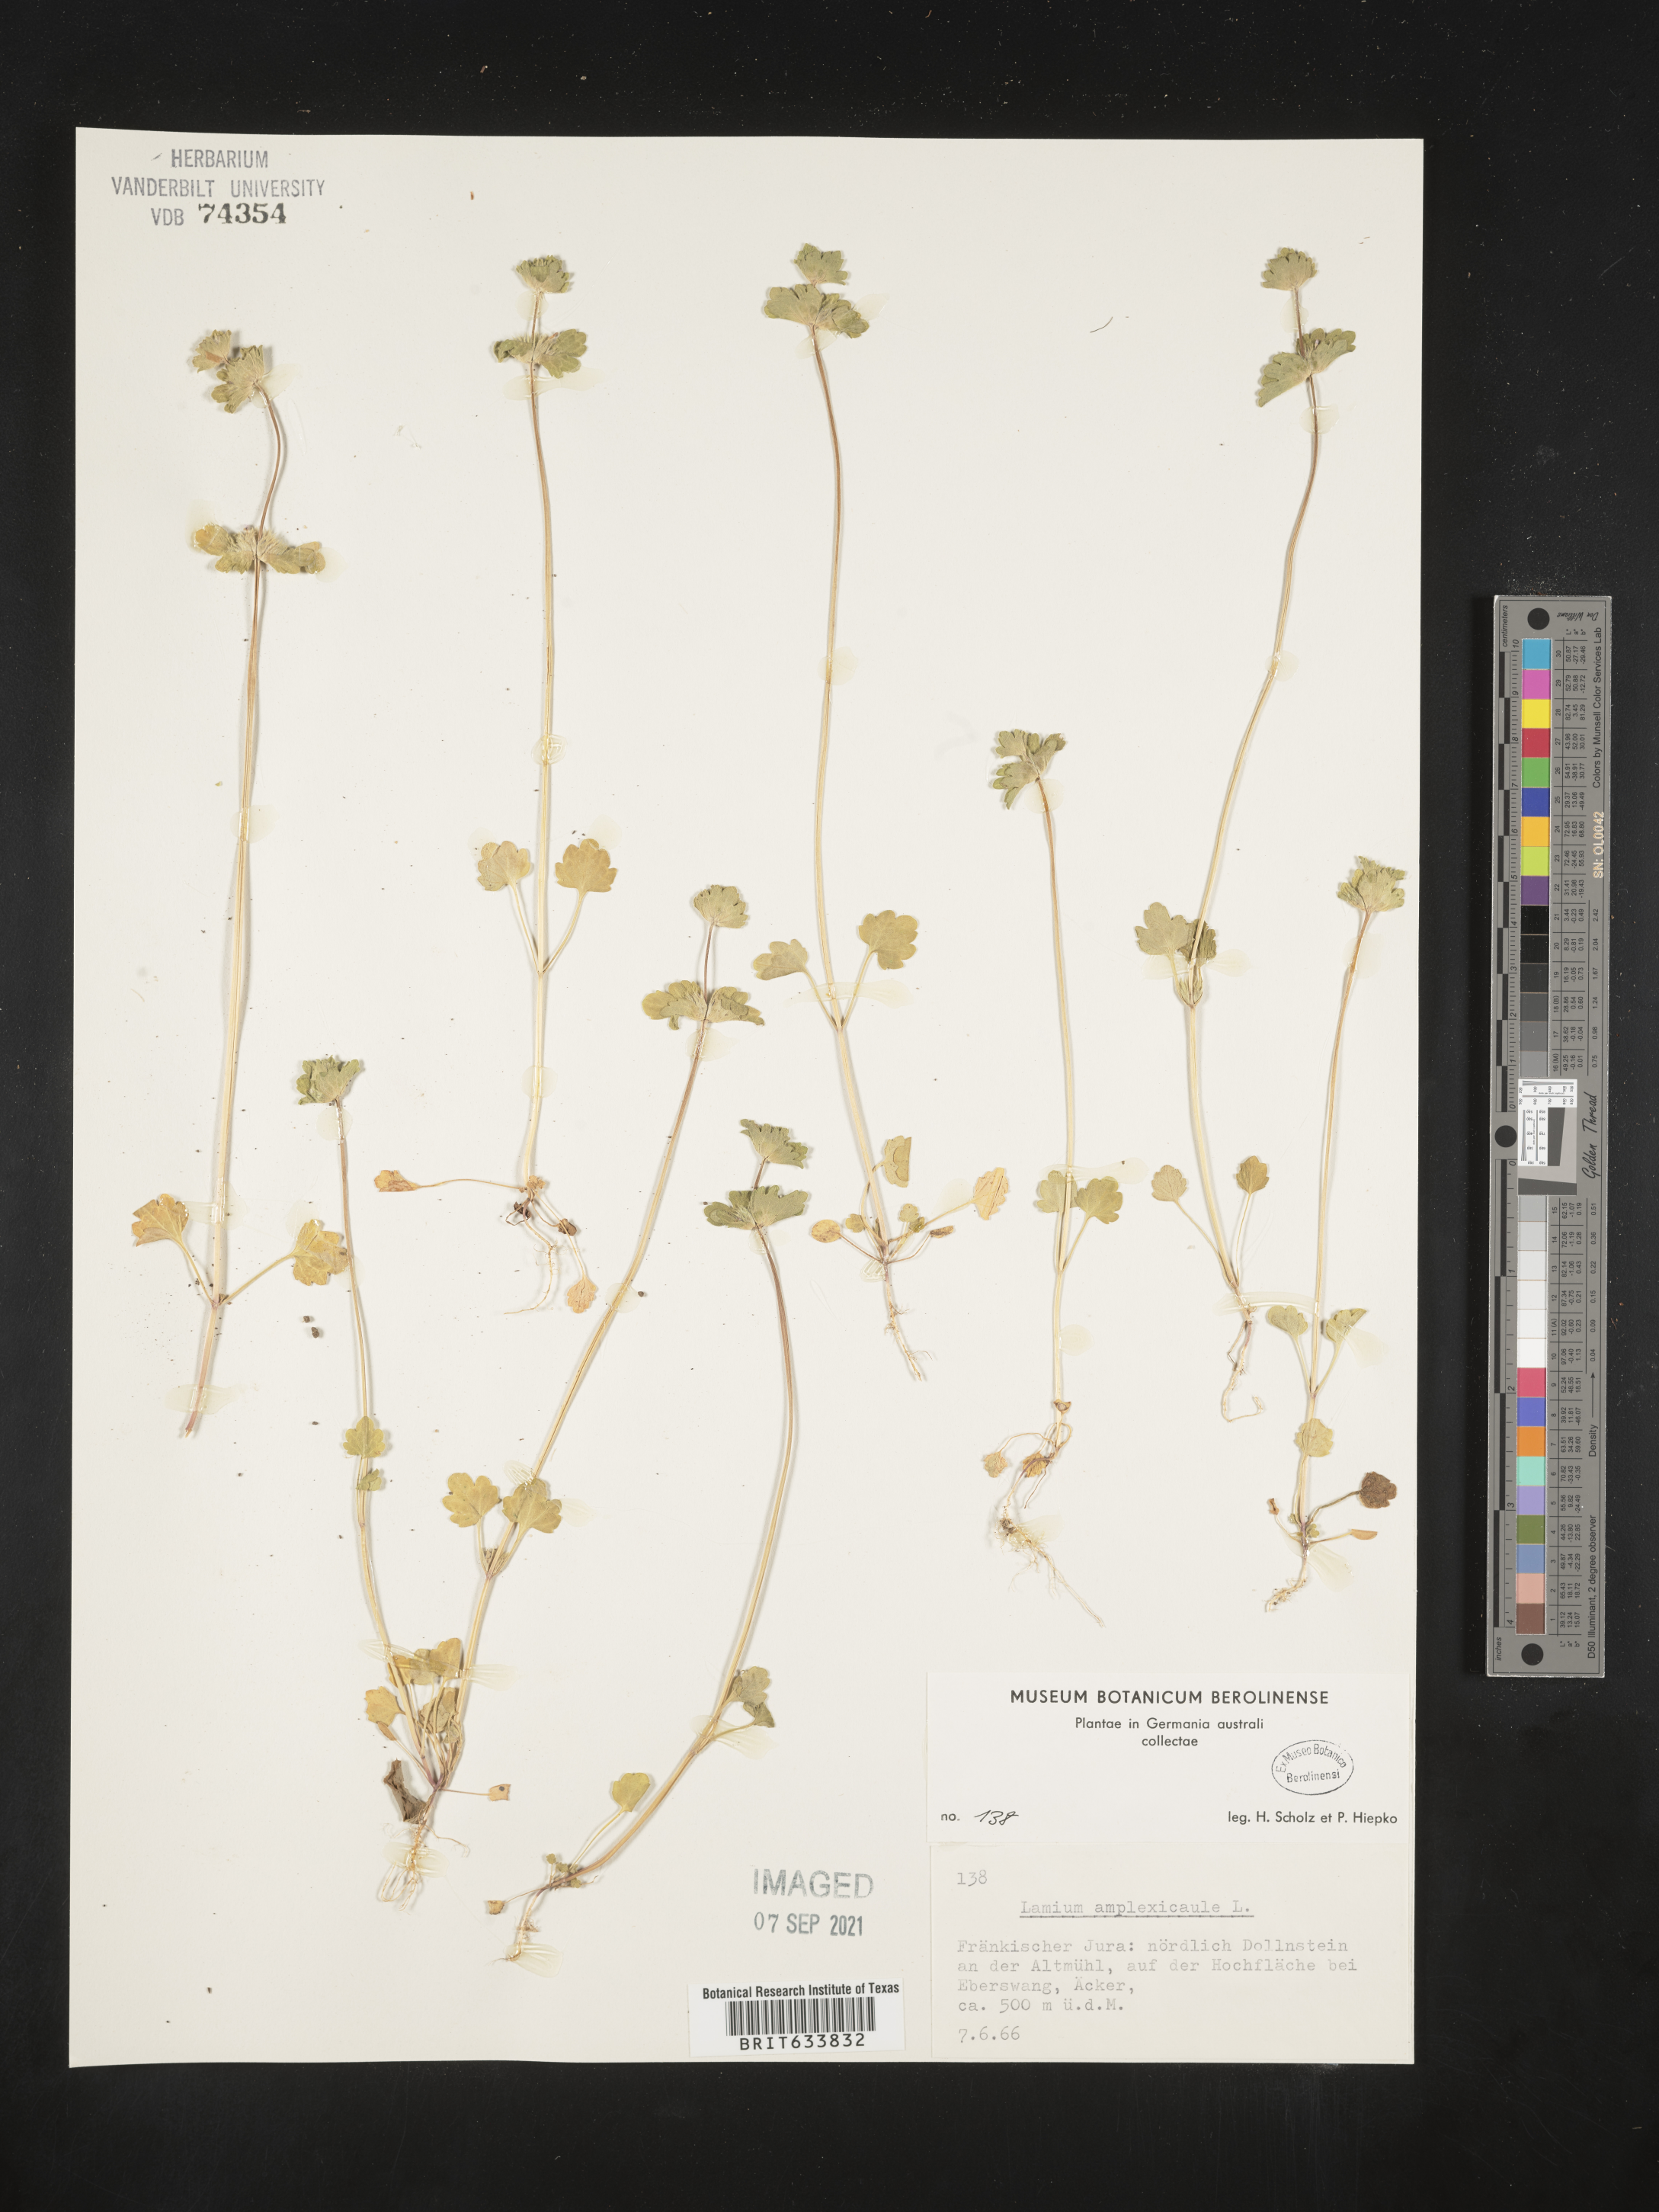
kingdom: Plantae
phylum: Tracheophyta
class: Magnoliopsida
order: Lamiales
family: Lamiaceae
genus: Lamium
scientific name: Lamium
